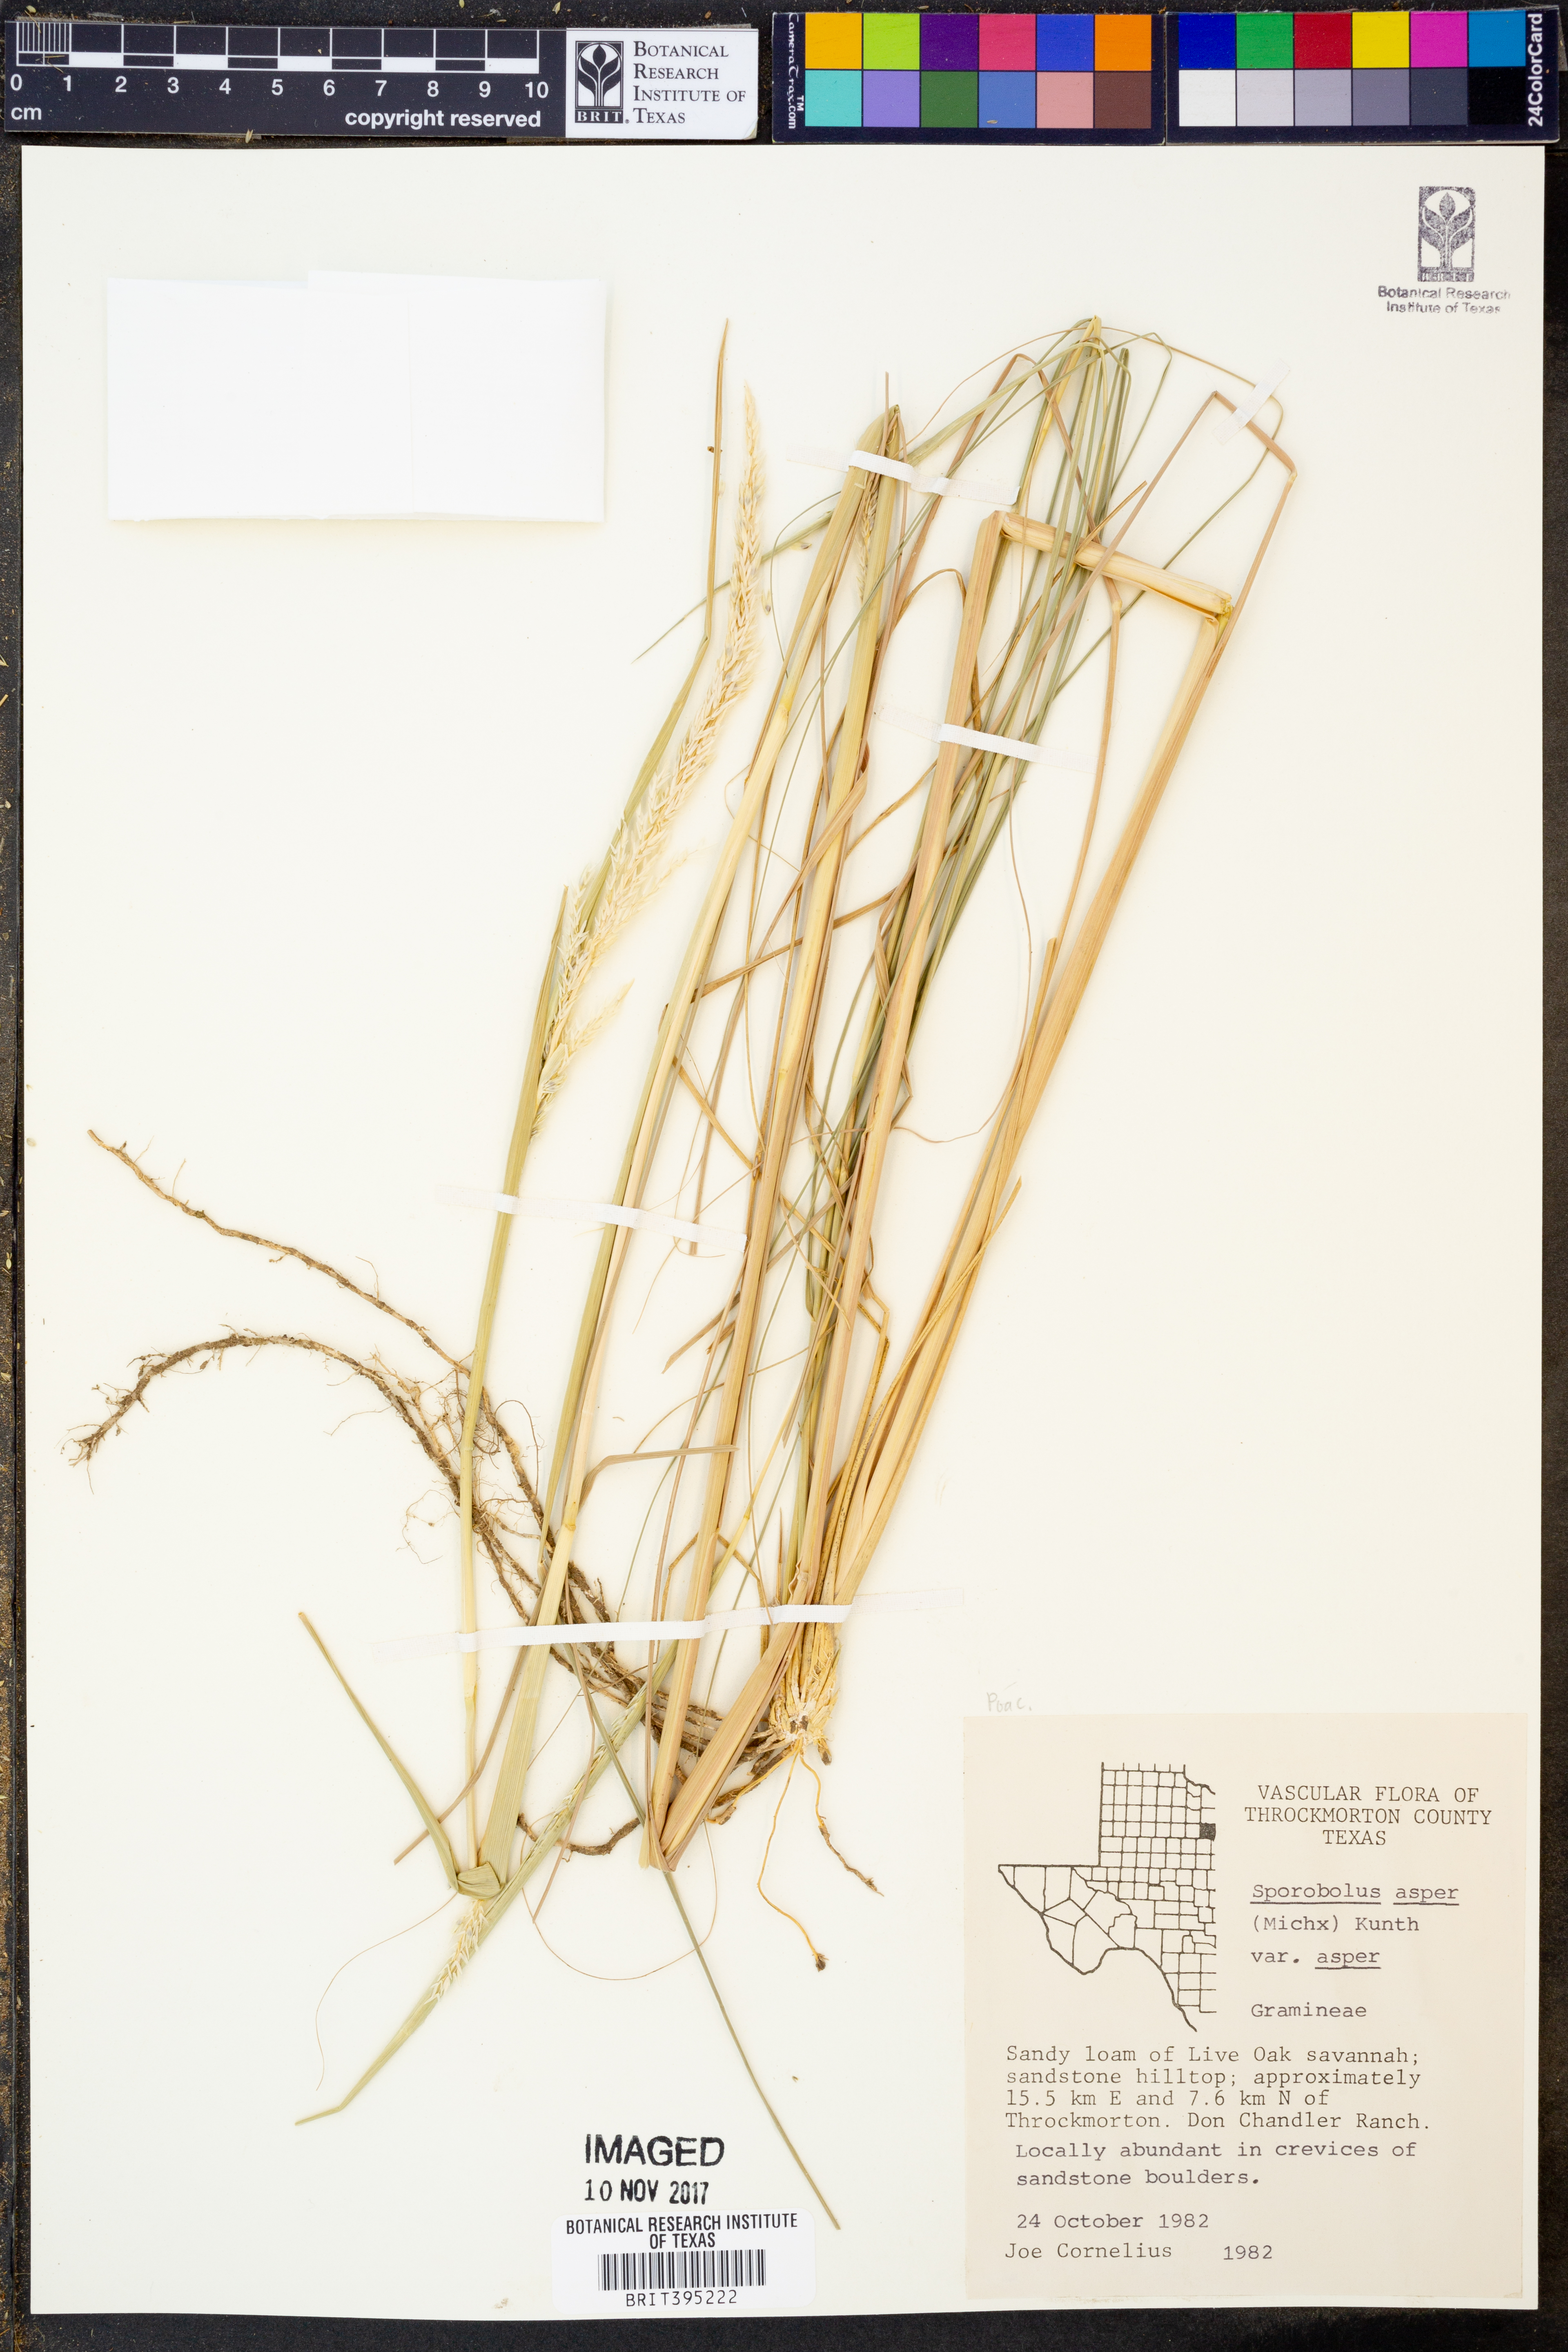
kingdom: Plantae
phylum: Tracheophyta
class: Liliopsida
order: Poales
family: Poaceae
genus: Sporobolus
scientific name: Sporobolus compositus
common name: Rough dropseed
